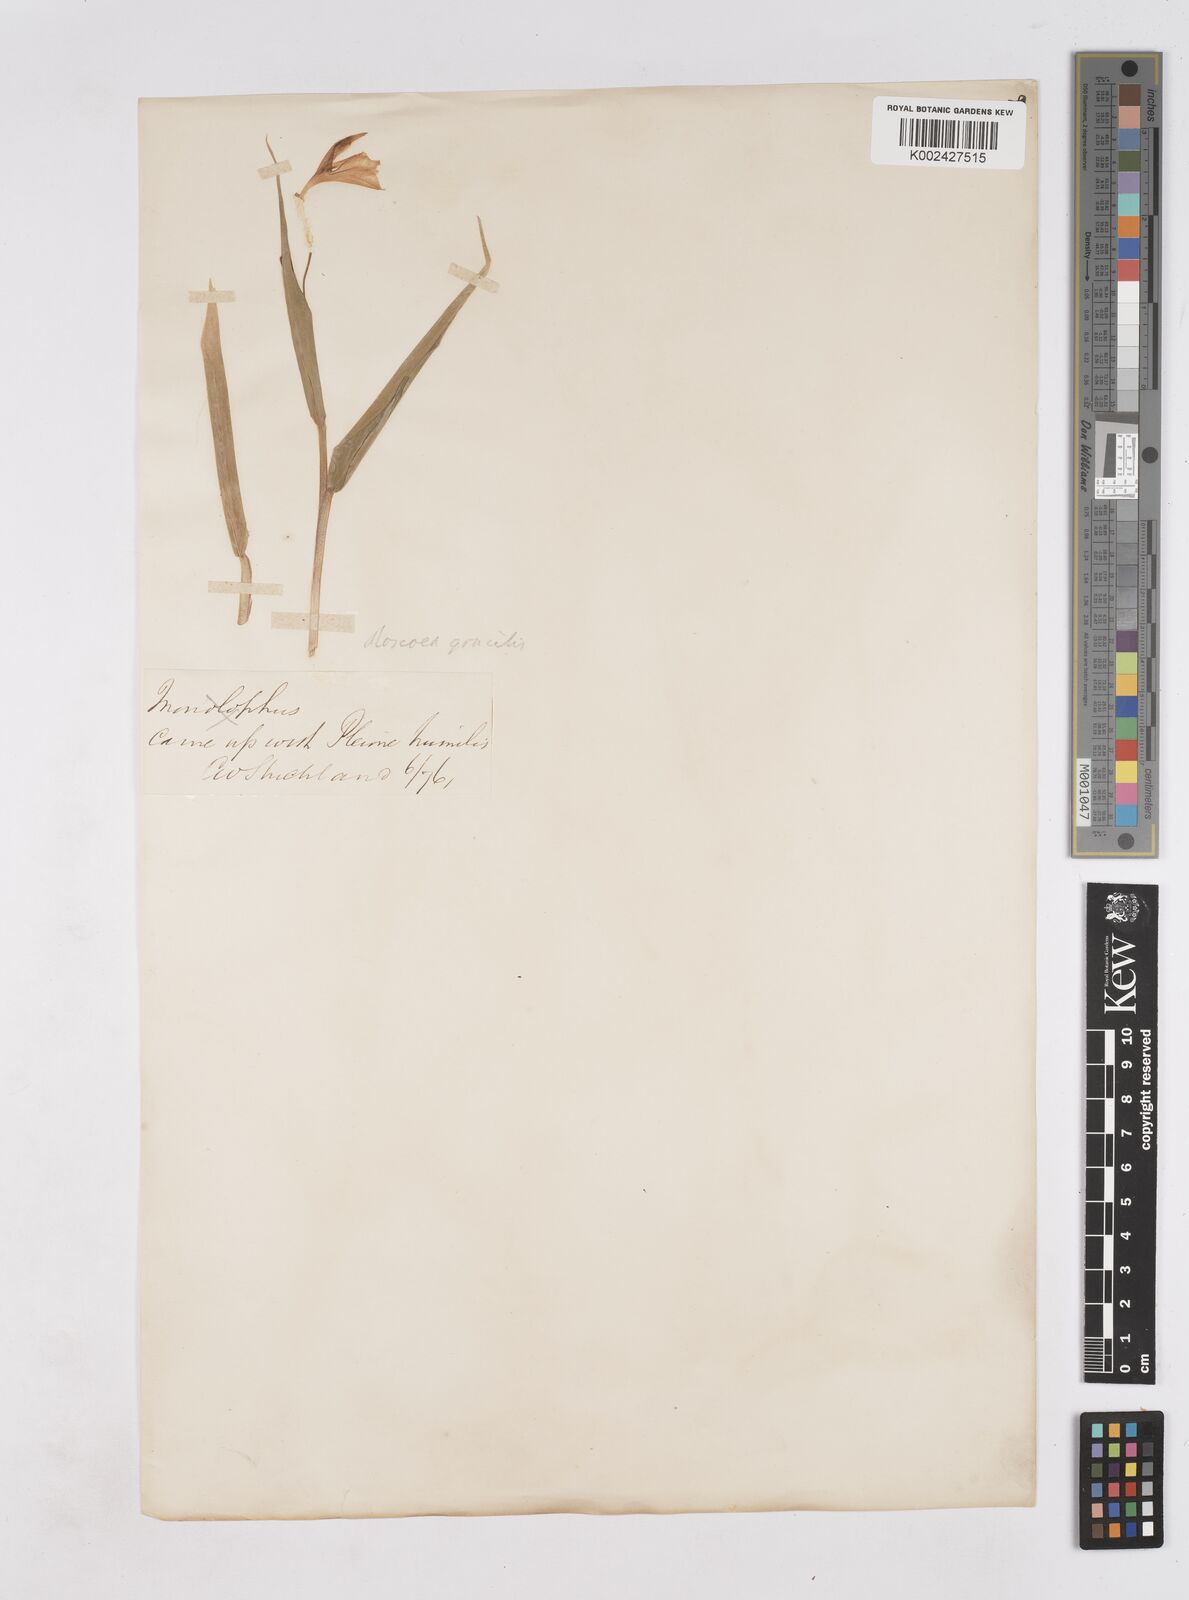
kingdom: Plantae
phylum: Tracheophyta
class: Liliopsida
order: Zingiberales
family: Zingiberaceae
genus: Cautleya
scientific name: Cautleya gracilis
